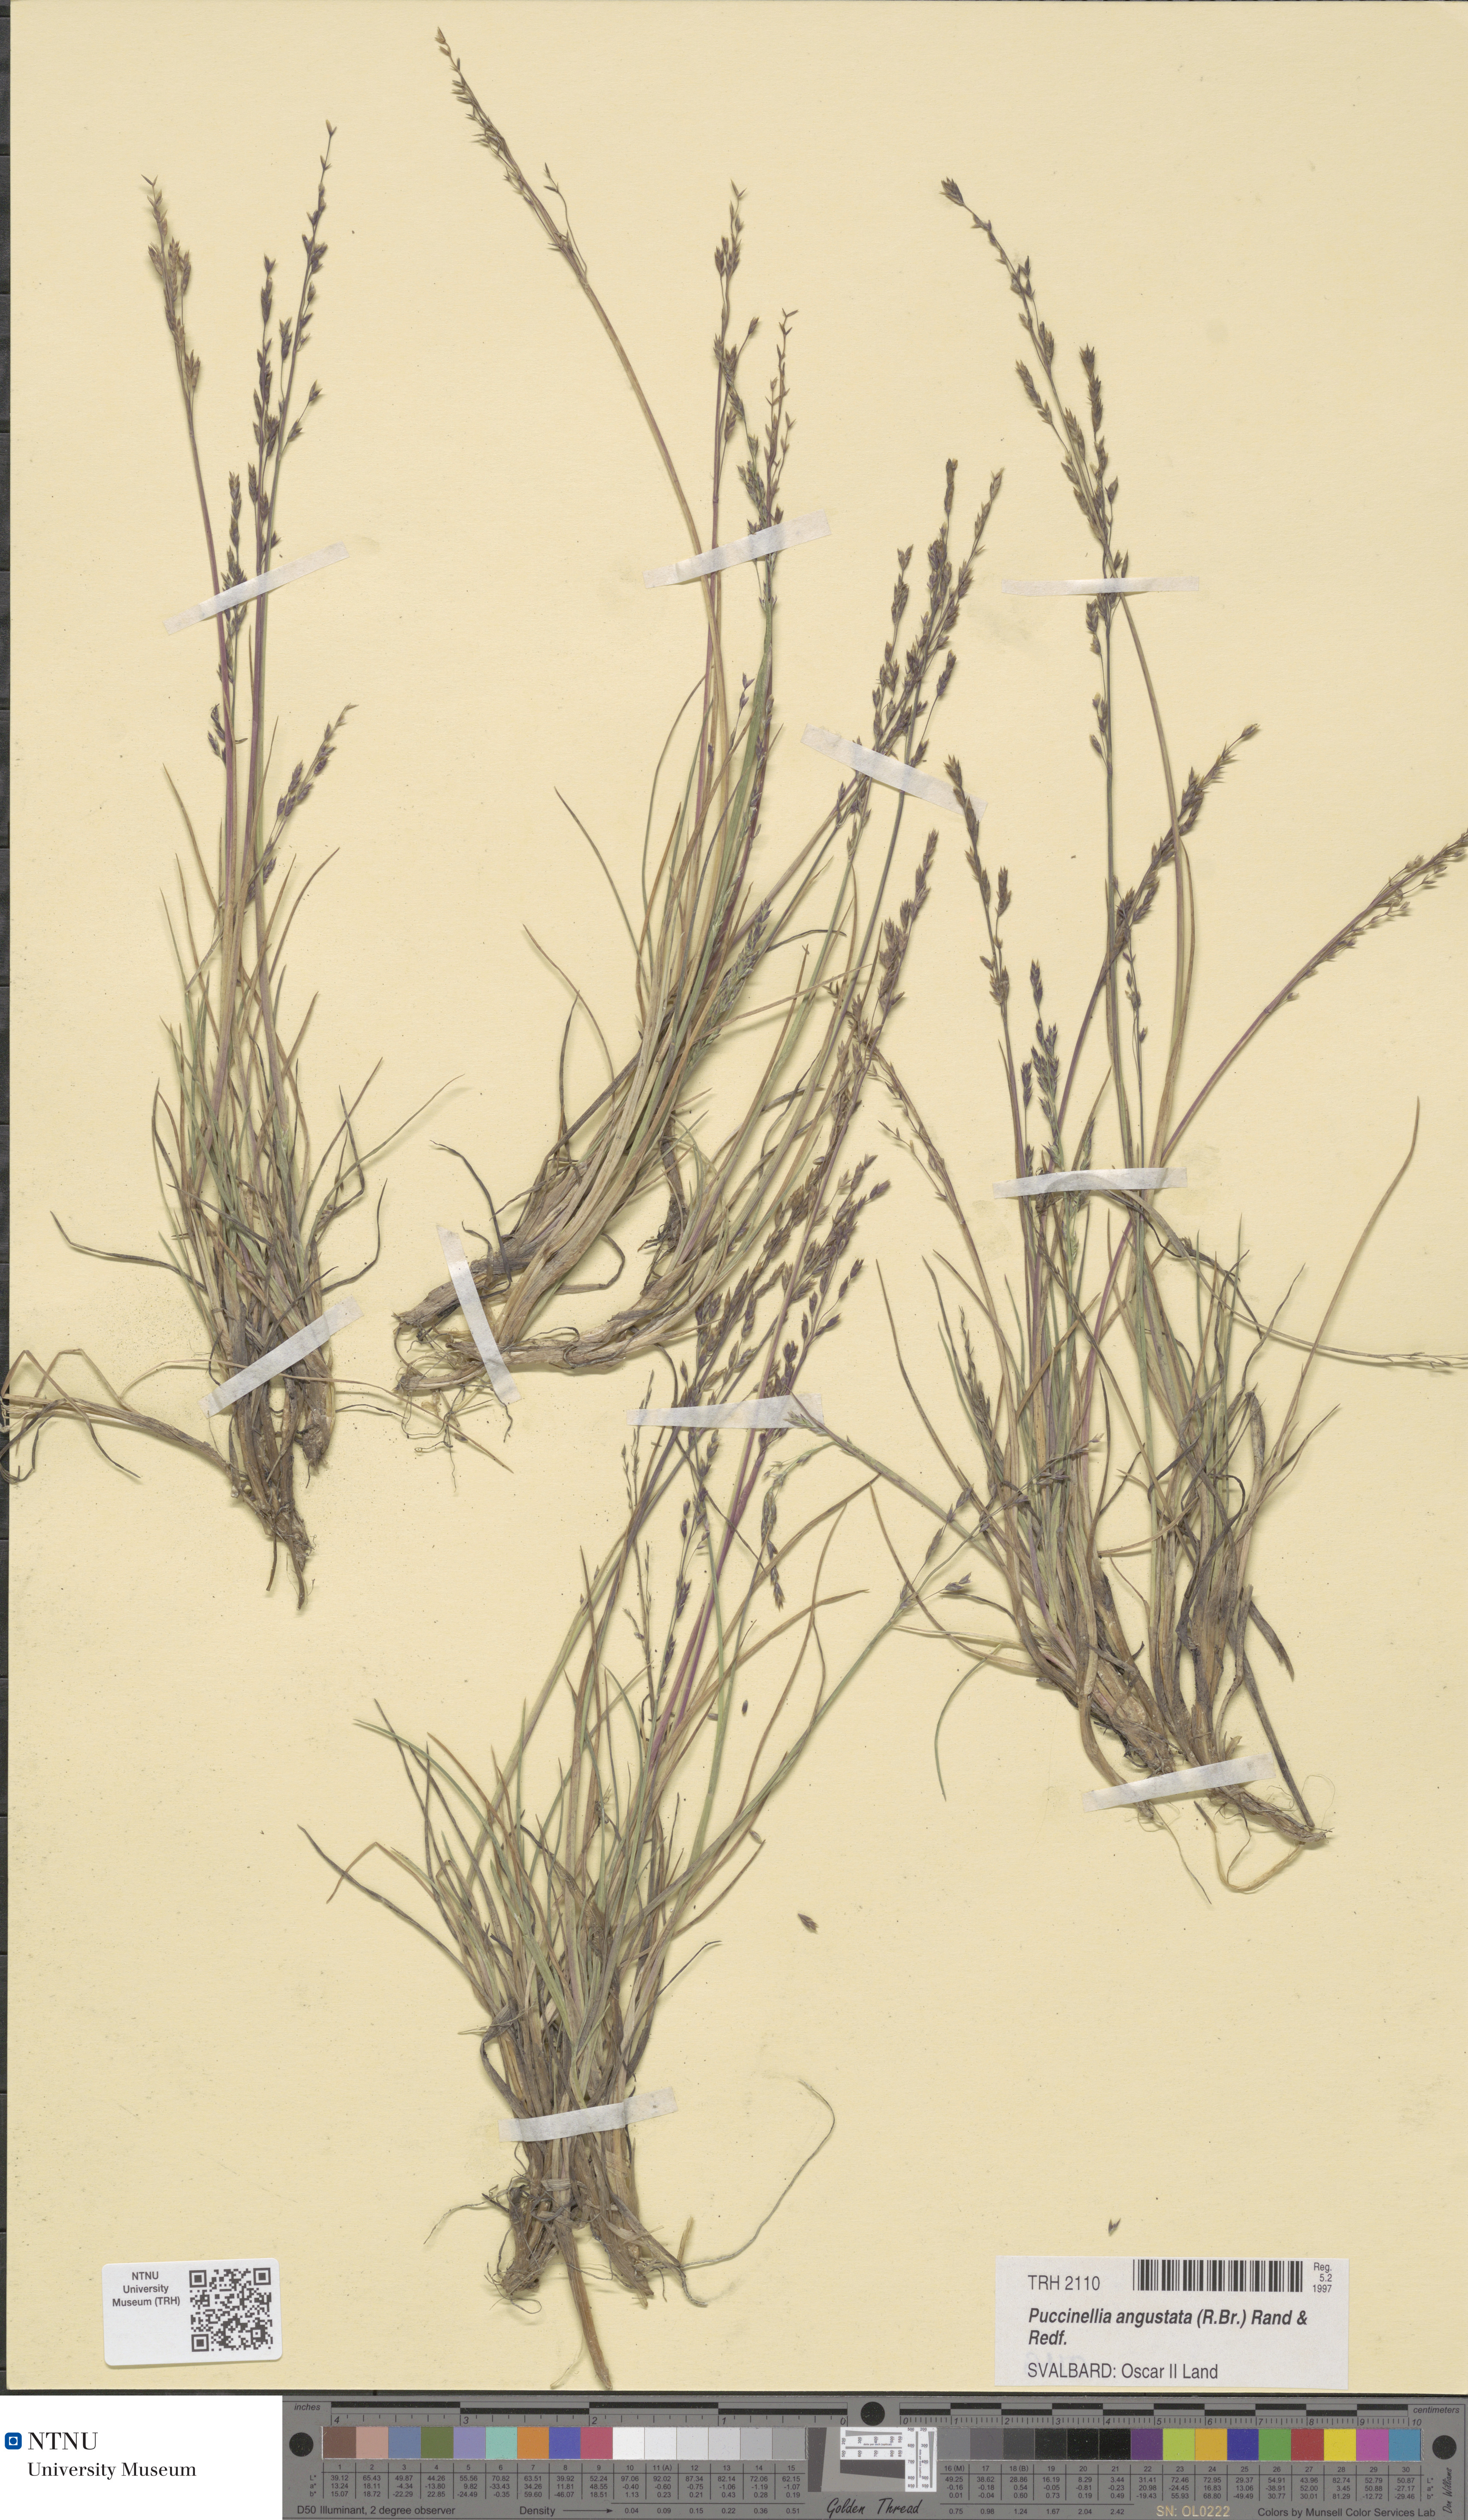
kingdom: Plantae
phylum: Tracheophyta
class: Liliopsida
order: Poales
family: Poaceae
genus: Puccinellia
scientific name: Puccinellia angustata
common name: Narrow alkaligrass
